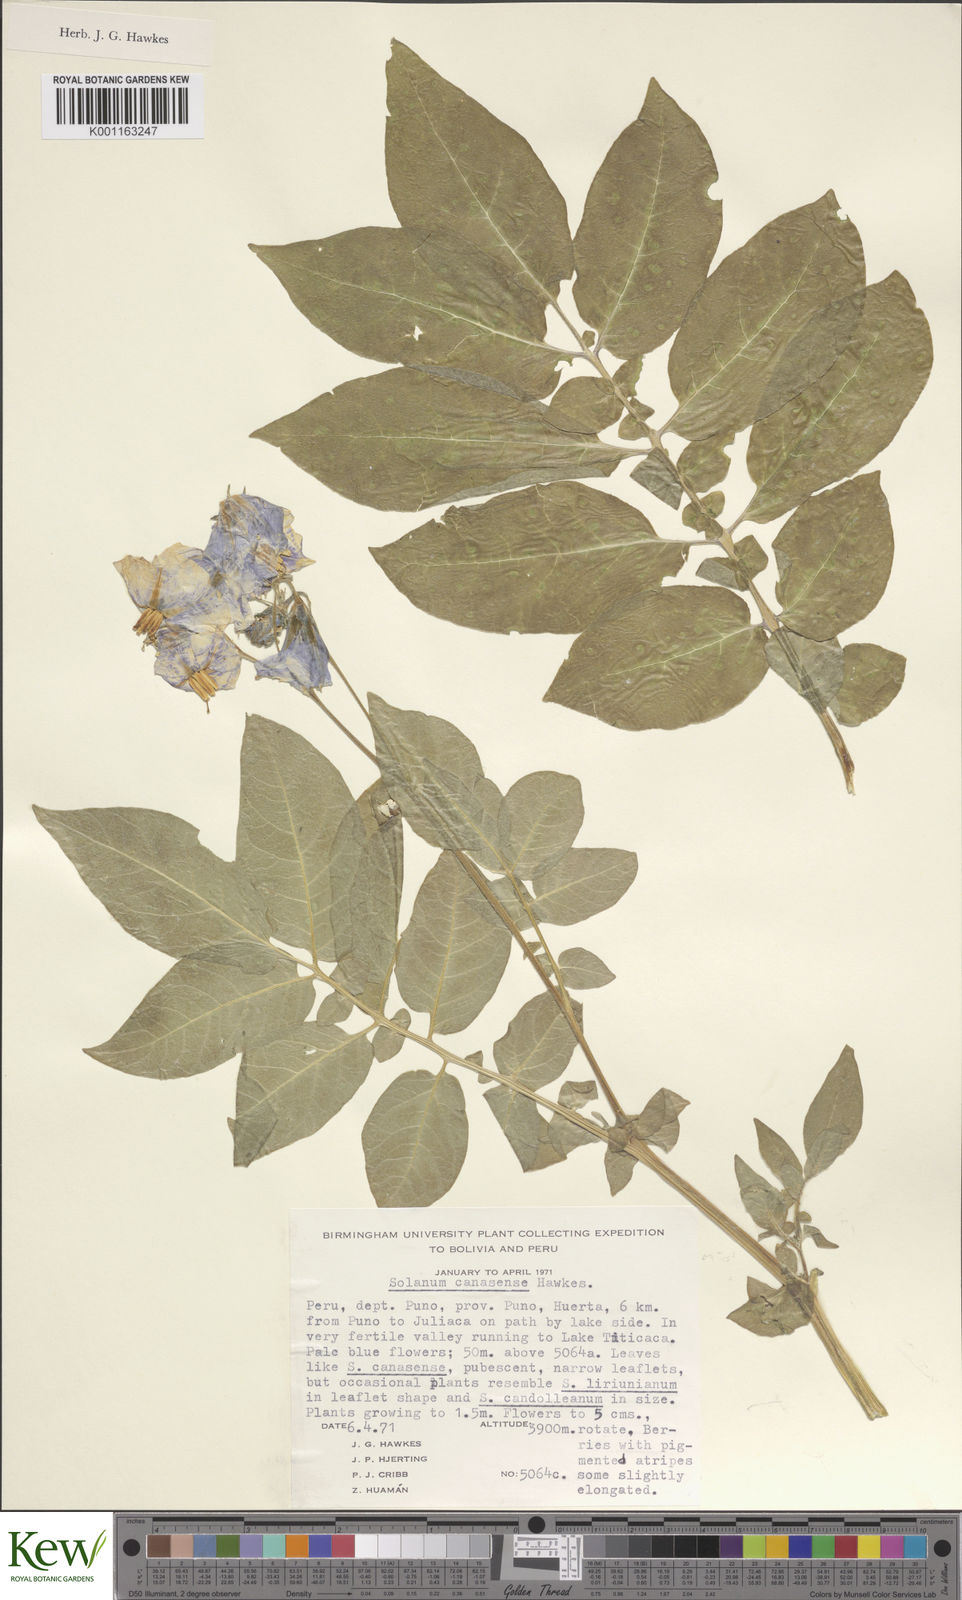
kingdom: Plantae
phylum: Tracheophyta
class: Magnoliopsida
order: Solanales
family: Solanaceae
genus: Solanum
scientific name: Solanum candolleanum
